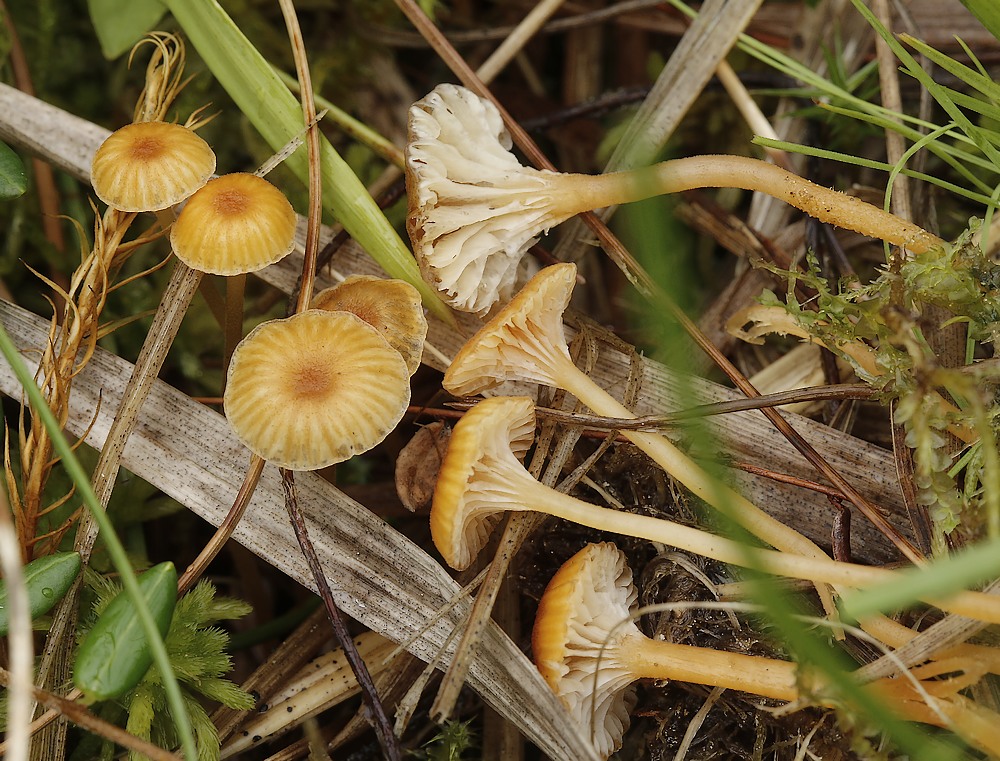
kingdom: Fungi
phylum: Basidiomycota
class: Agaricomycetes
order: Hymenochaetales
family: Rickenellaceae
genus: Rickenella
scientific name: Rickenella fibula
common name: orange mosnavlehat
